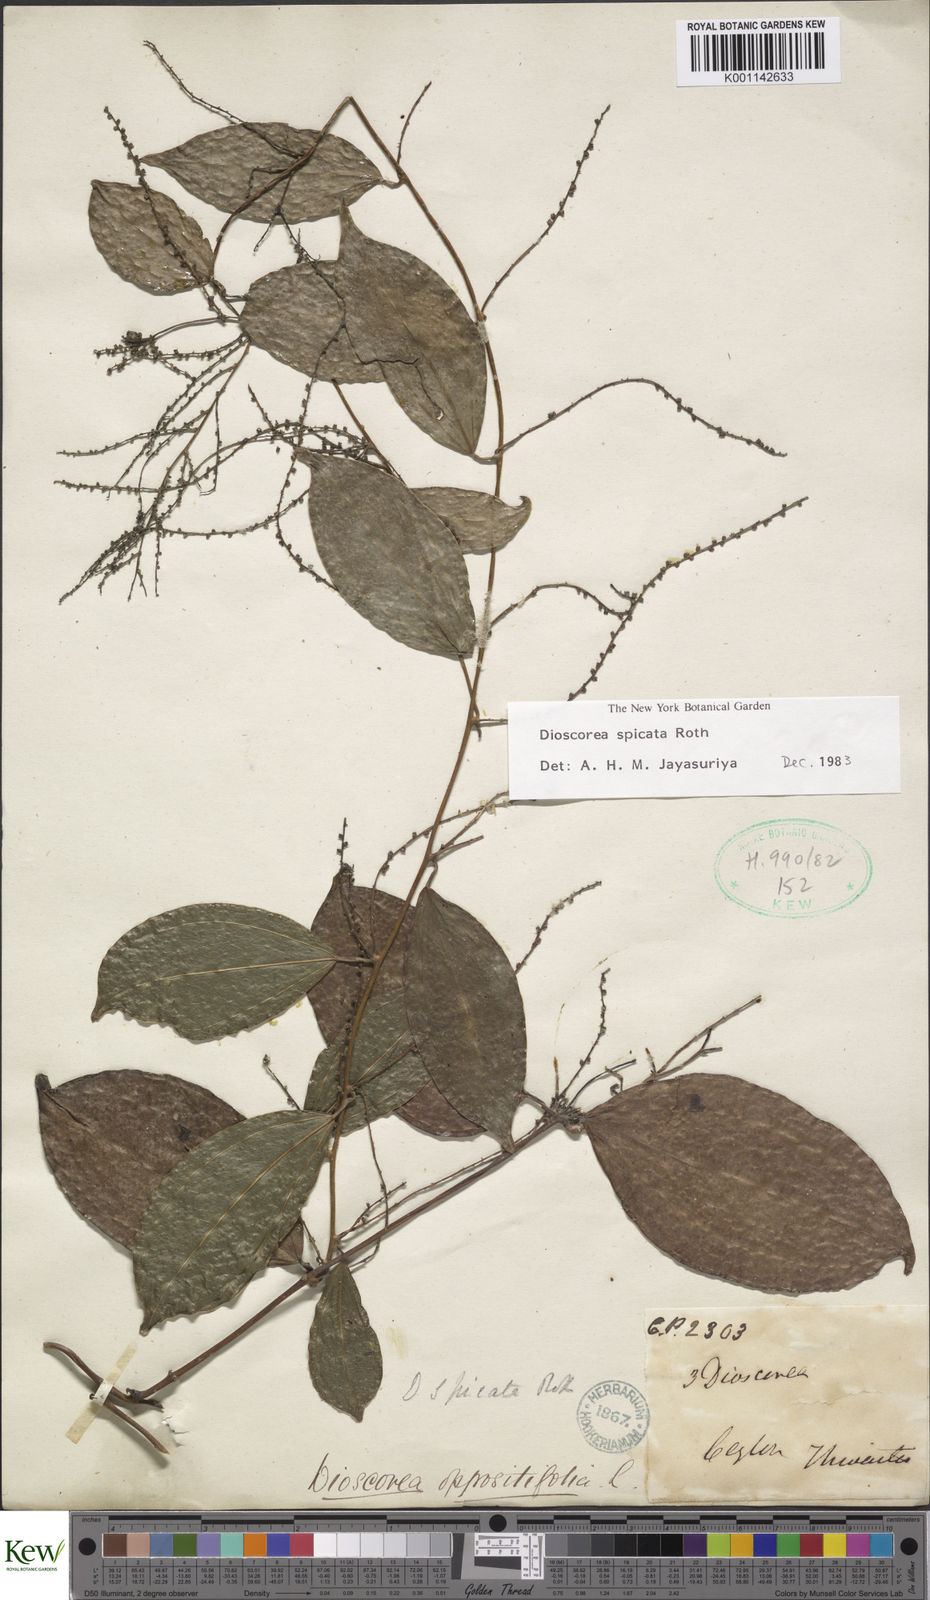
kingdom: Plantae
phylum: Tracheophyta
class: Liliopsida
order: Dioscoreales
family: Dioscoreaceae
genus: Dioscorea
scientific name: Dioscorea spicata
